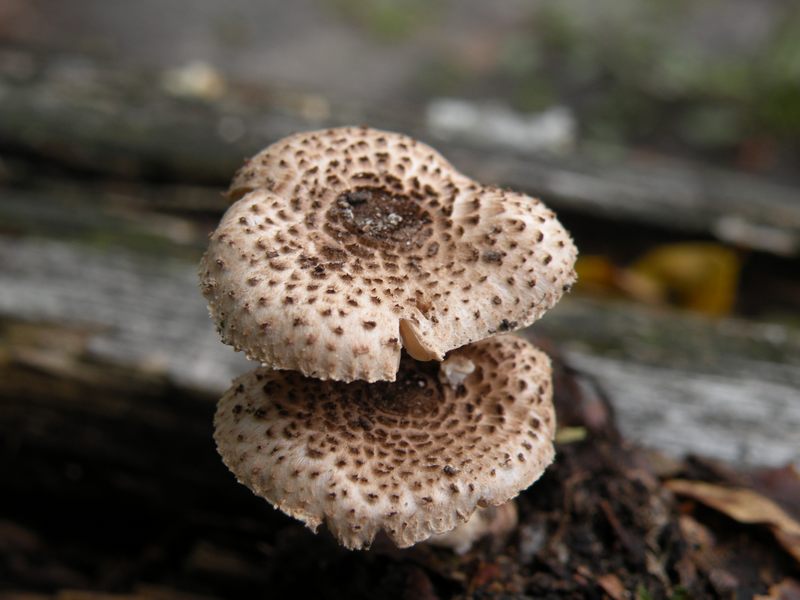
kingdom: Fungi
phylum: Basidiomycota
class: Agaricomycetes
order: Agaricales
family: Agaricaceae
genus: Lepiota
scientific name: Lepiota felina
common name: sortskællet parasolhat
